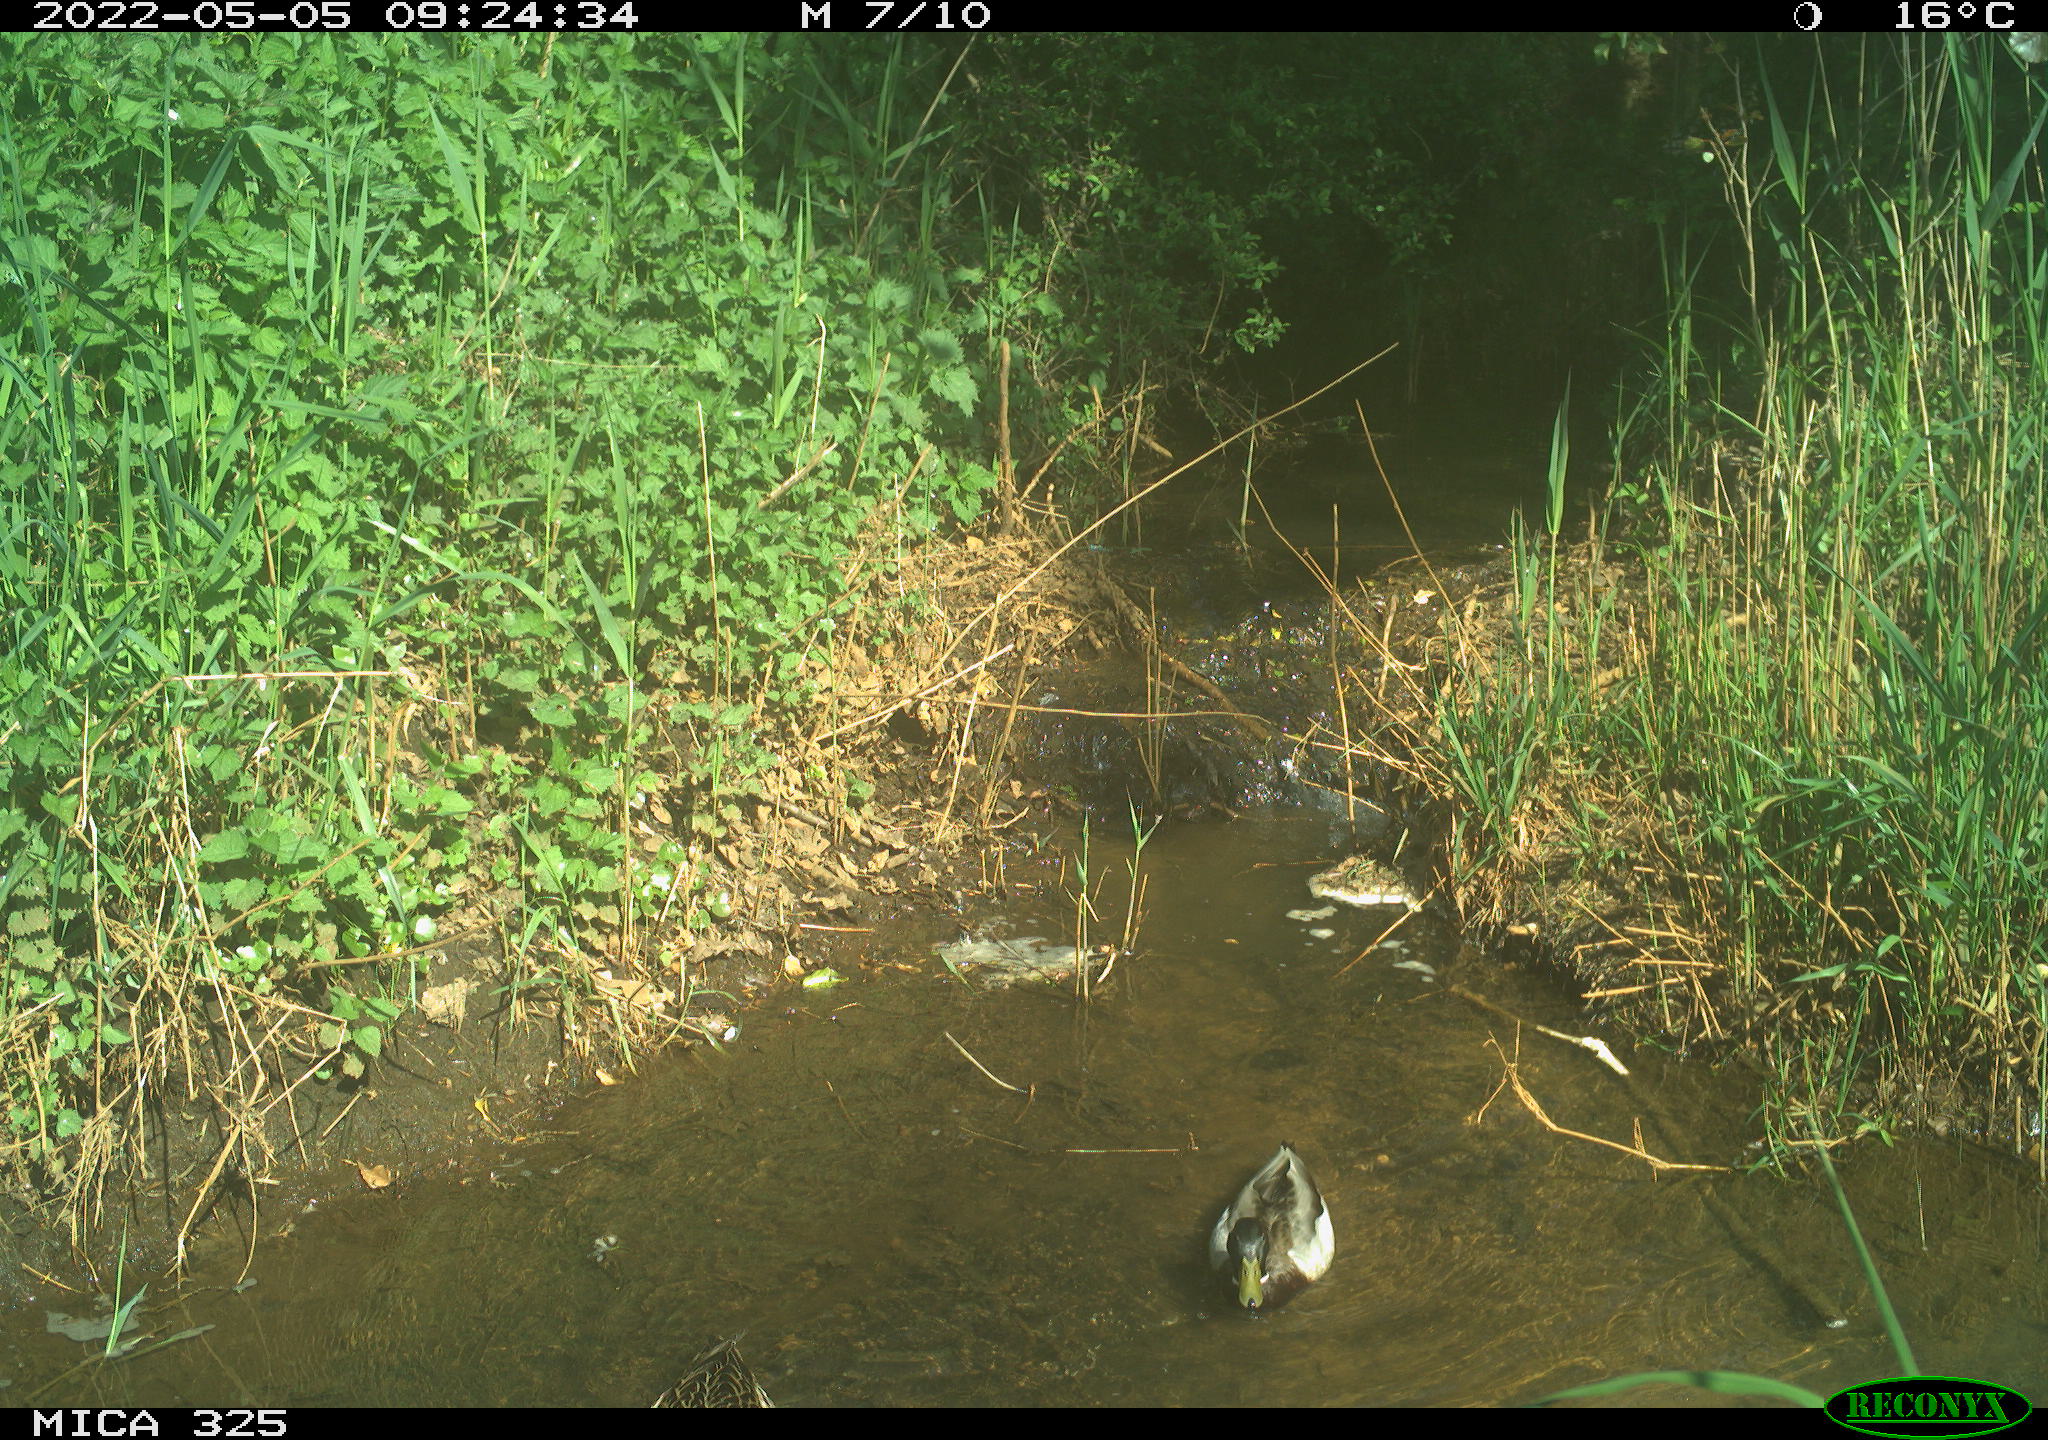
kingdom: Animalia
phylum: Chordata
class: Aves
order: Anseriformes
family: Anatidae
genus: Anas
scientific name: Anas platyrhynchos
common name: Mallard
